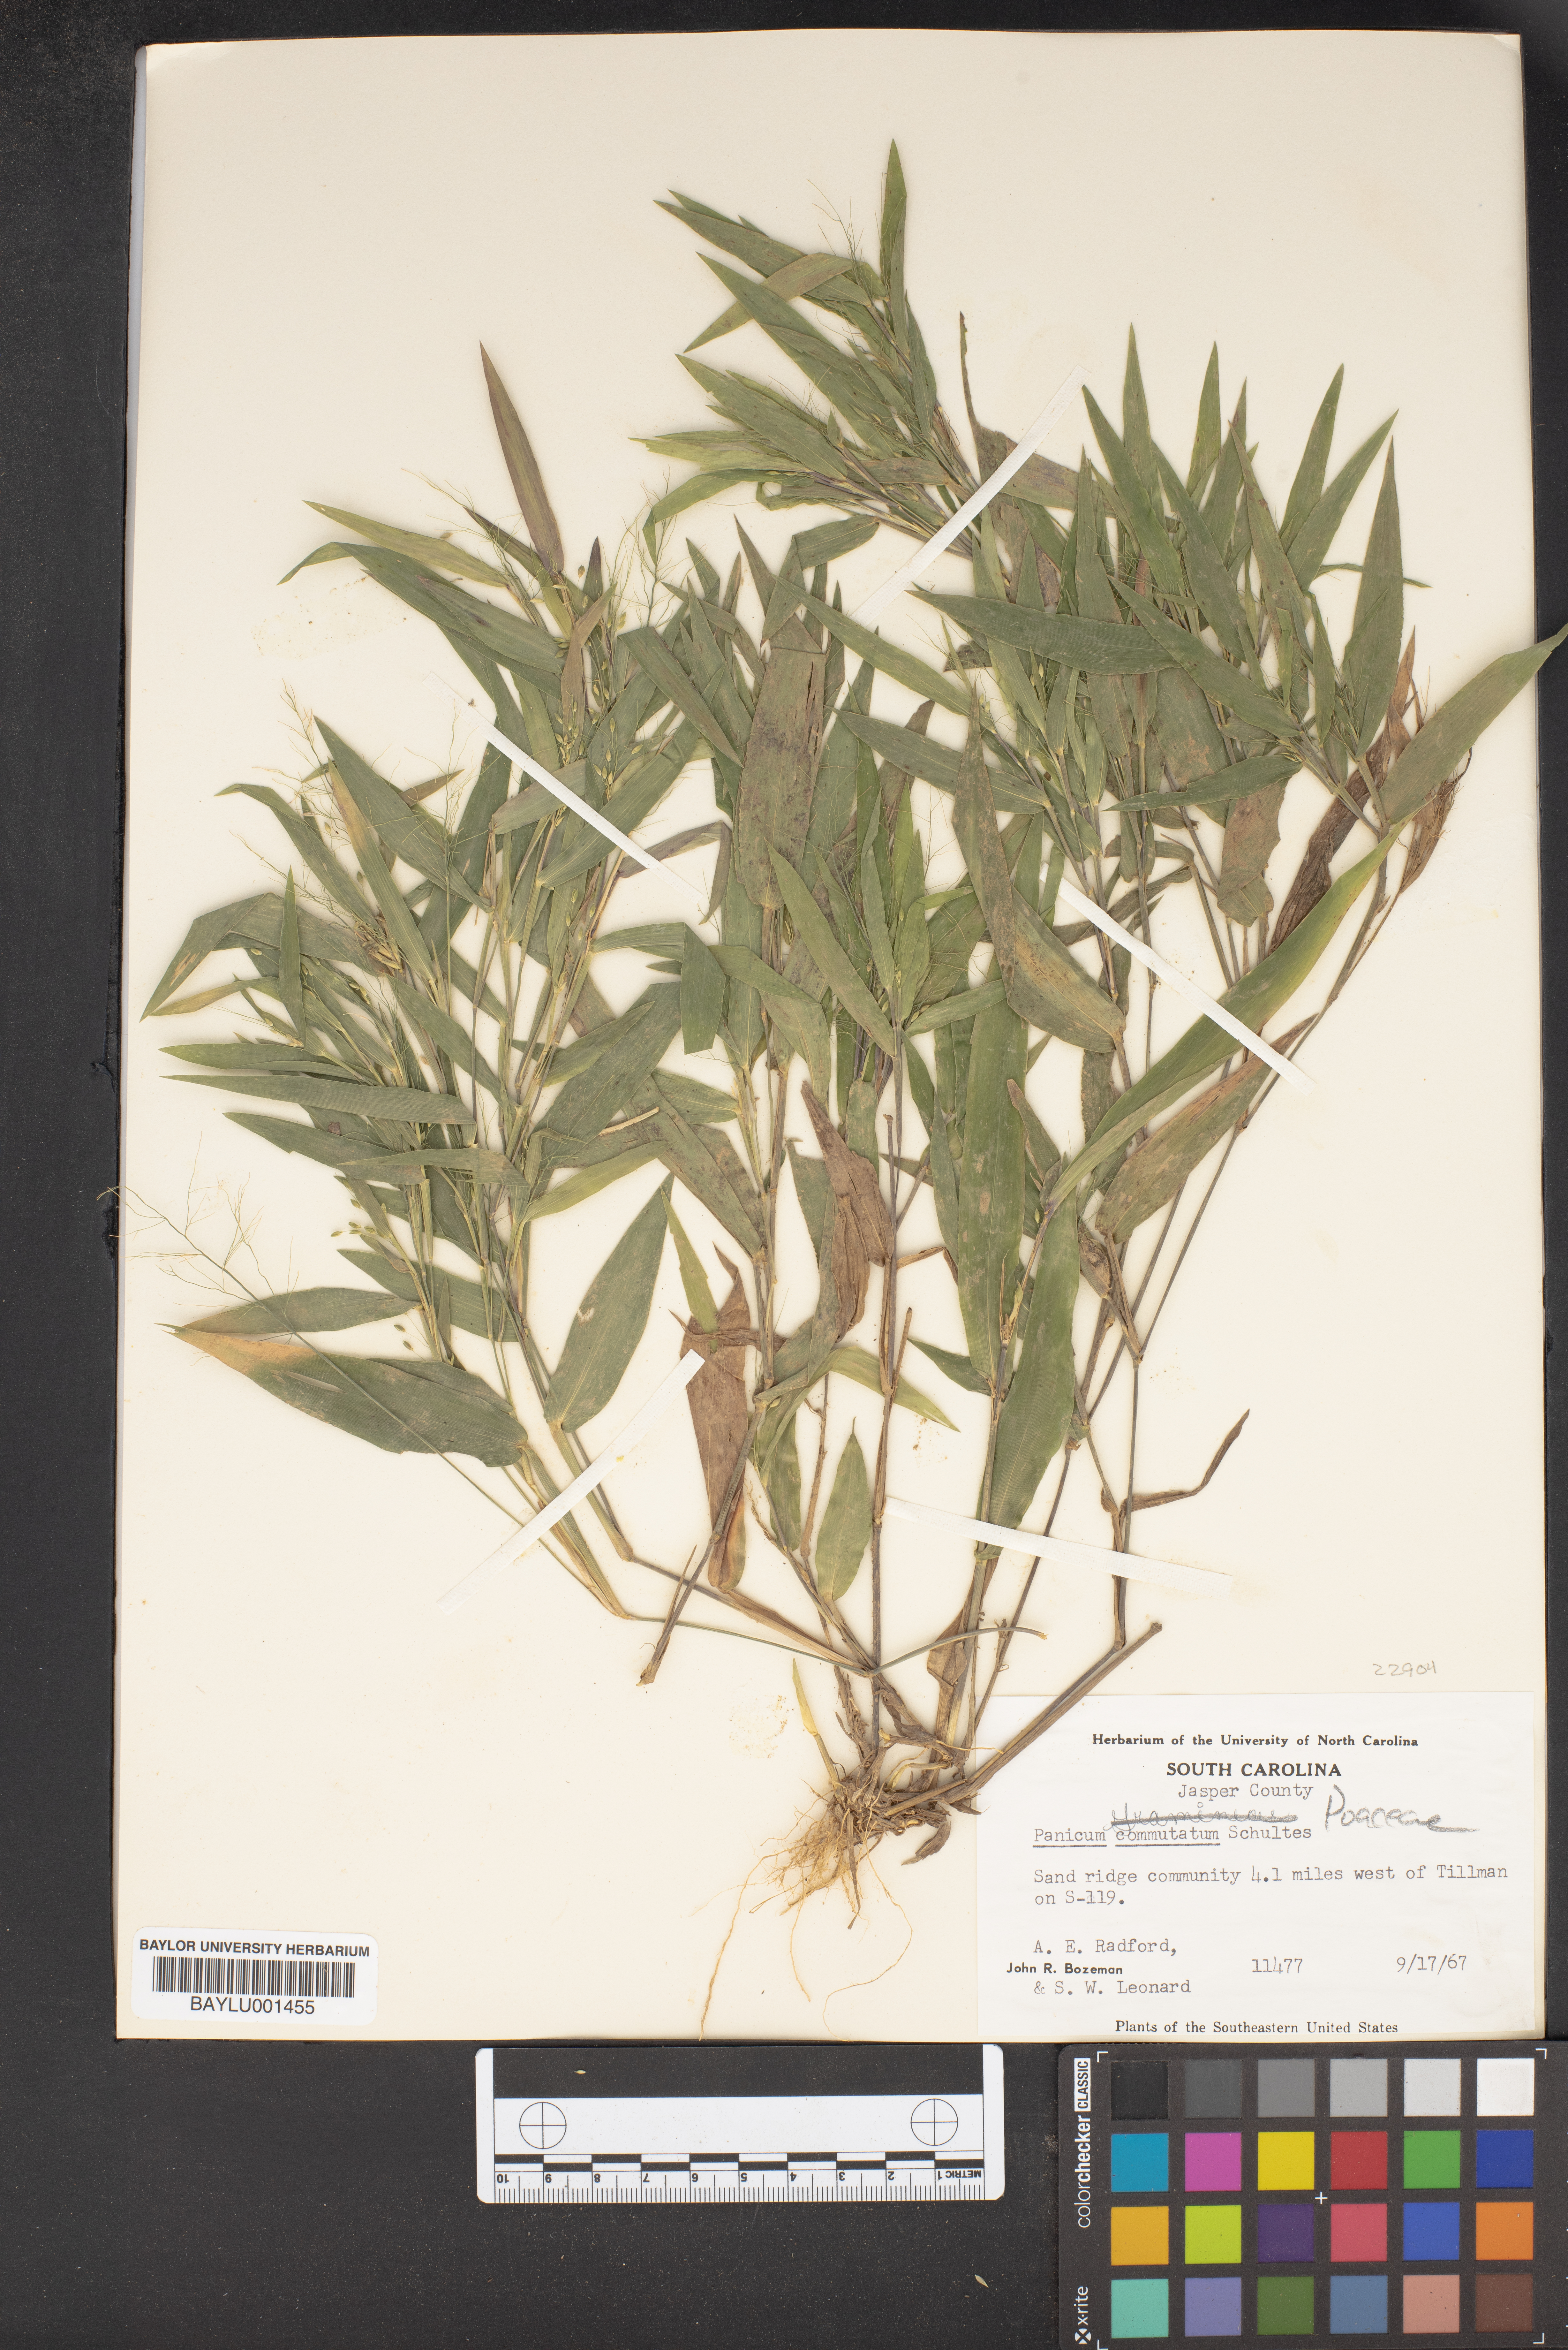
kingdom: Plantae
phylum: Tracheophyta
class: Liliopsida
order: Poales
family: Poaceae
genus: Dichanthelium
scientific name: Dichanthelium commutatum
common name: Variable witchgrass
